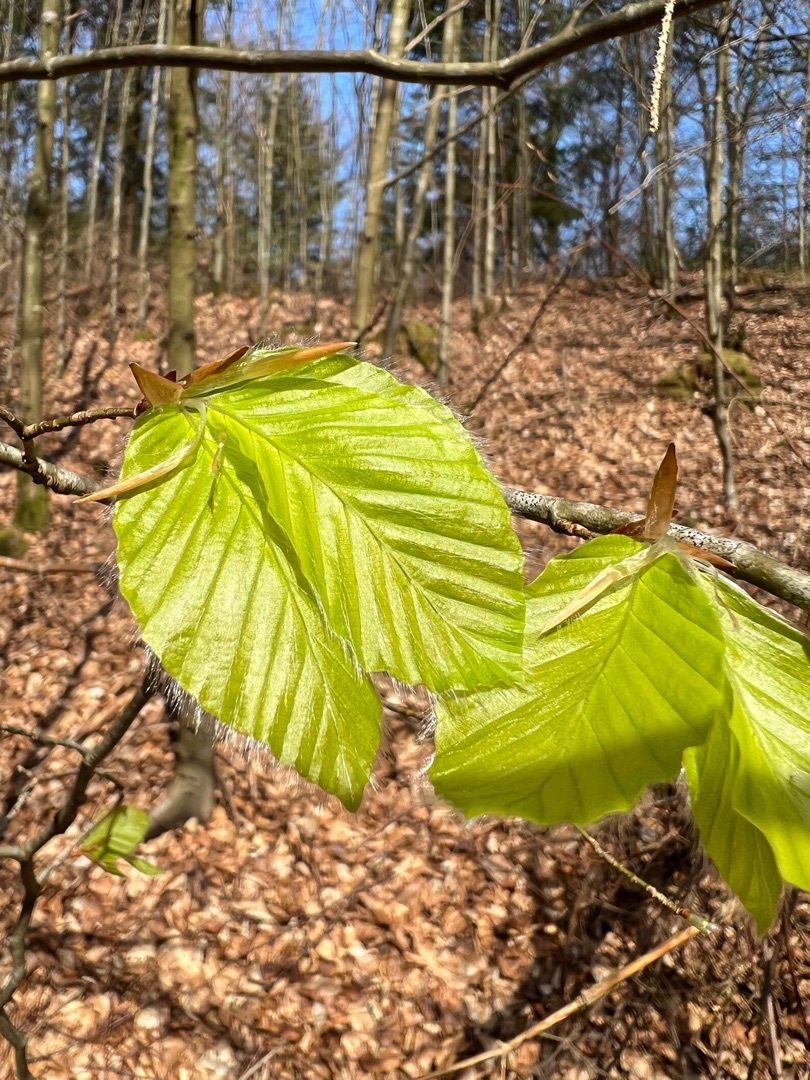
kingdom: Plantae
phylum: Tracheophyta
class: Magnoliopsida
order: Fagales
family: Fagaceae
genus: Fagus
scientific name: Fagus sylvatica
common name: Bøg
